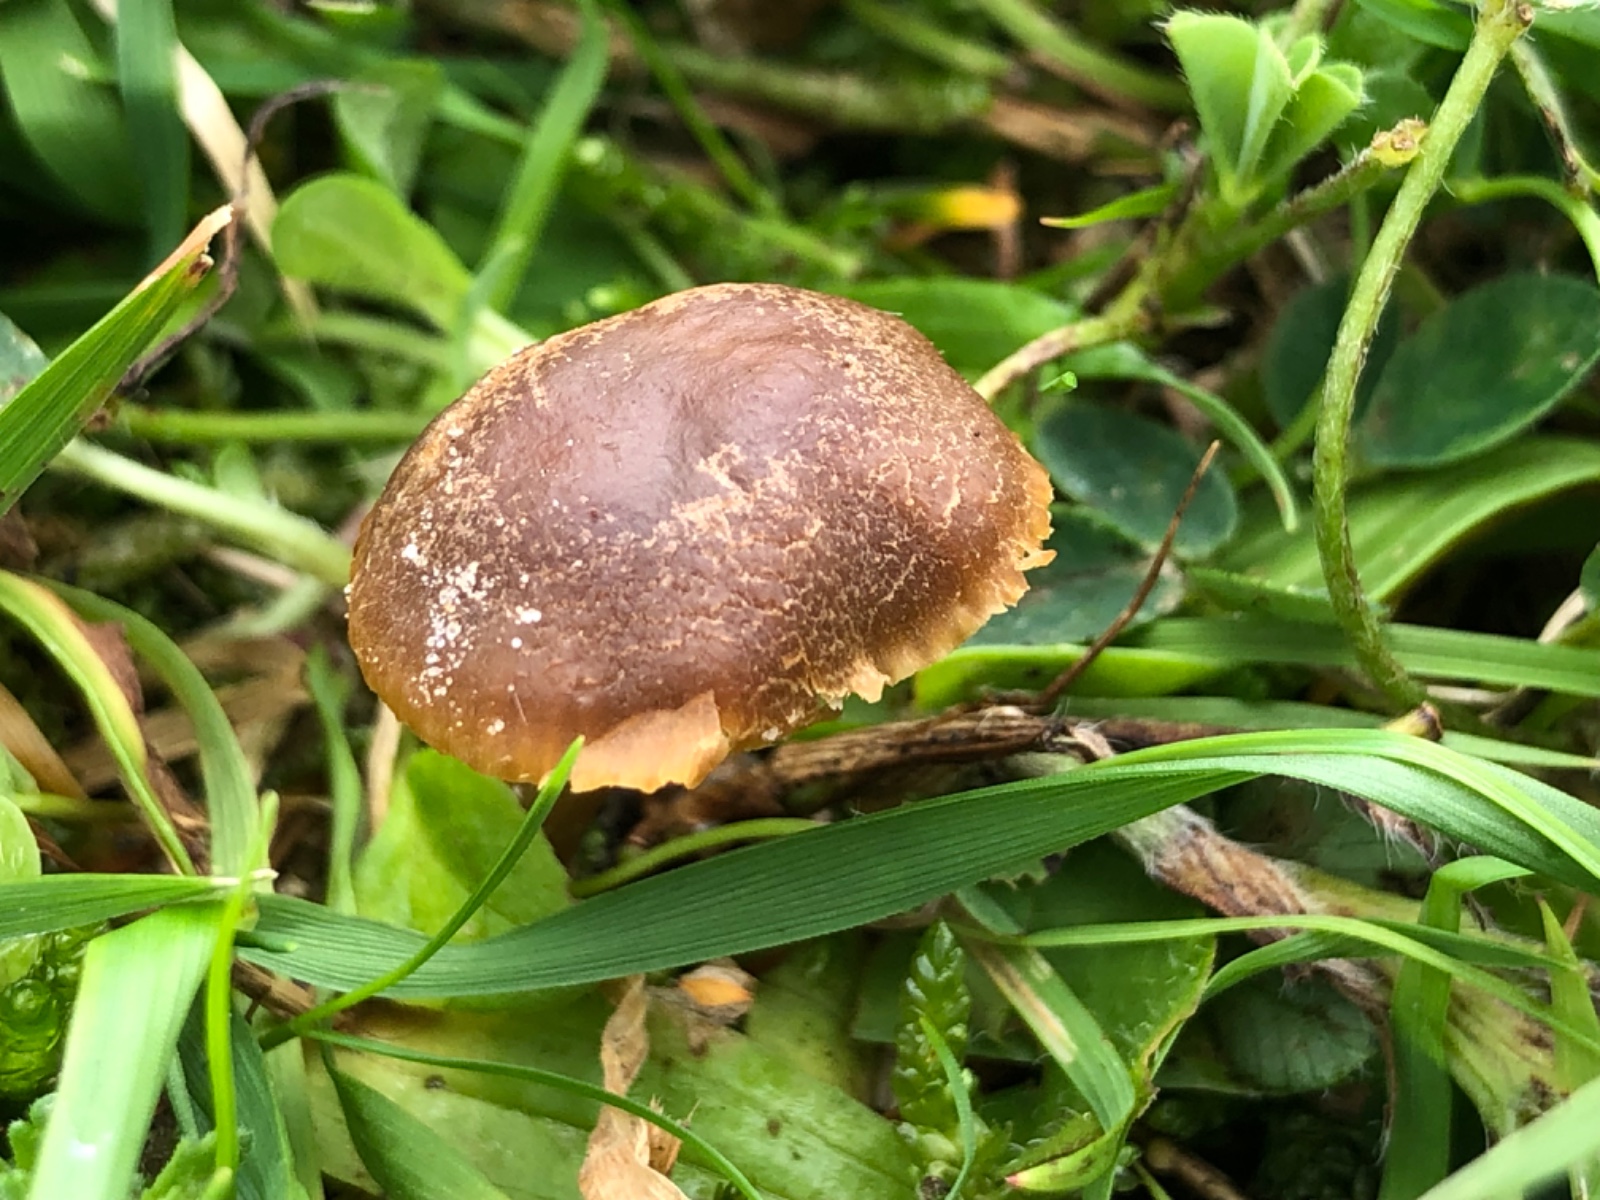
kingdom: Fungi
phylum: Basidiomycota
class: Agaricomycetes
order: Agaricales
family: Clavariaceae
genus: Camarophyllopsis
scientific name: Camarophyllopsis schulzeri
